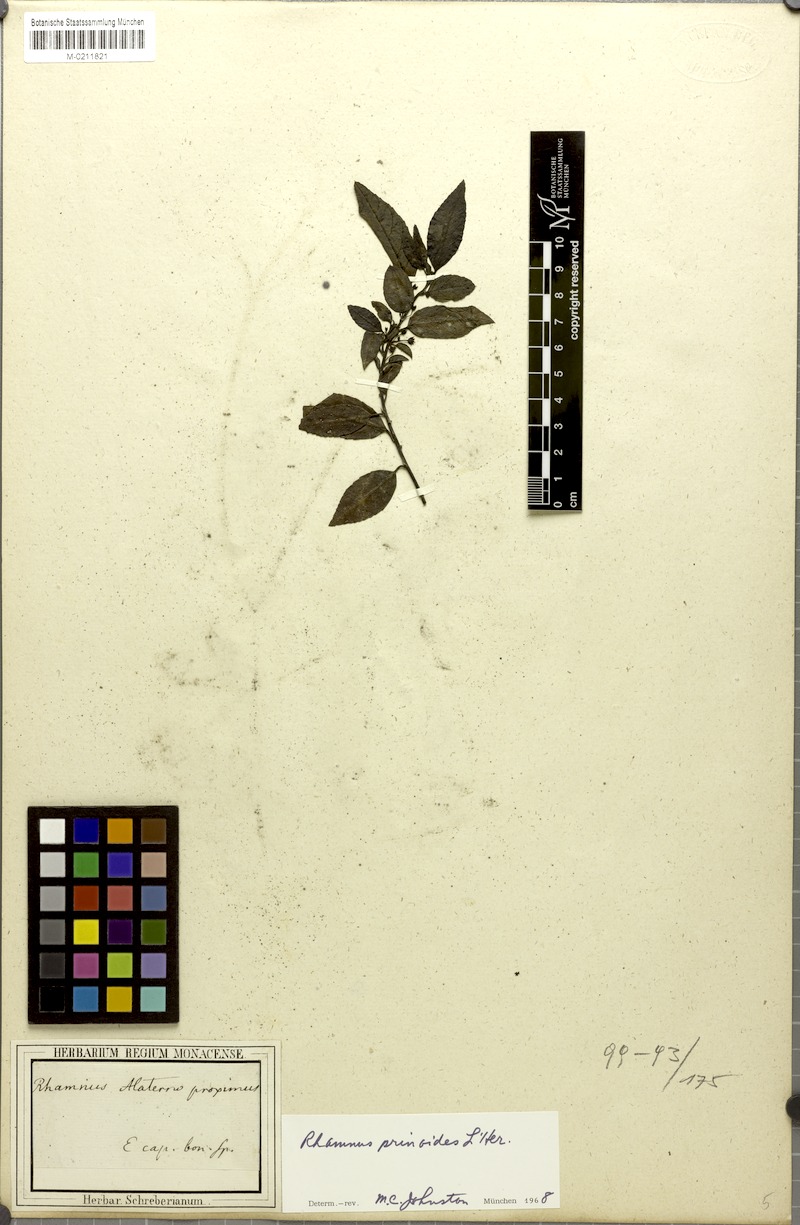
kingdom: Plantae
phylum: Tracheophyta
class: Magnoliopsida
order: Rosales
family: Rhamnaceae
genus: Rhamnus
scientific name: Rhamnus prinoides
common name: Dogwood
